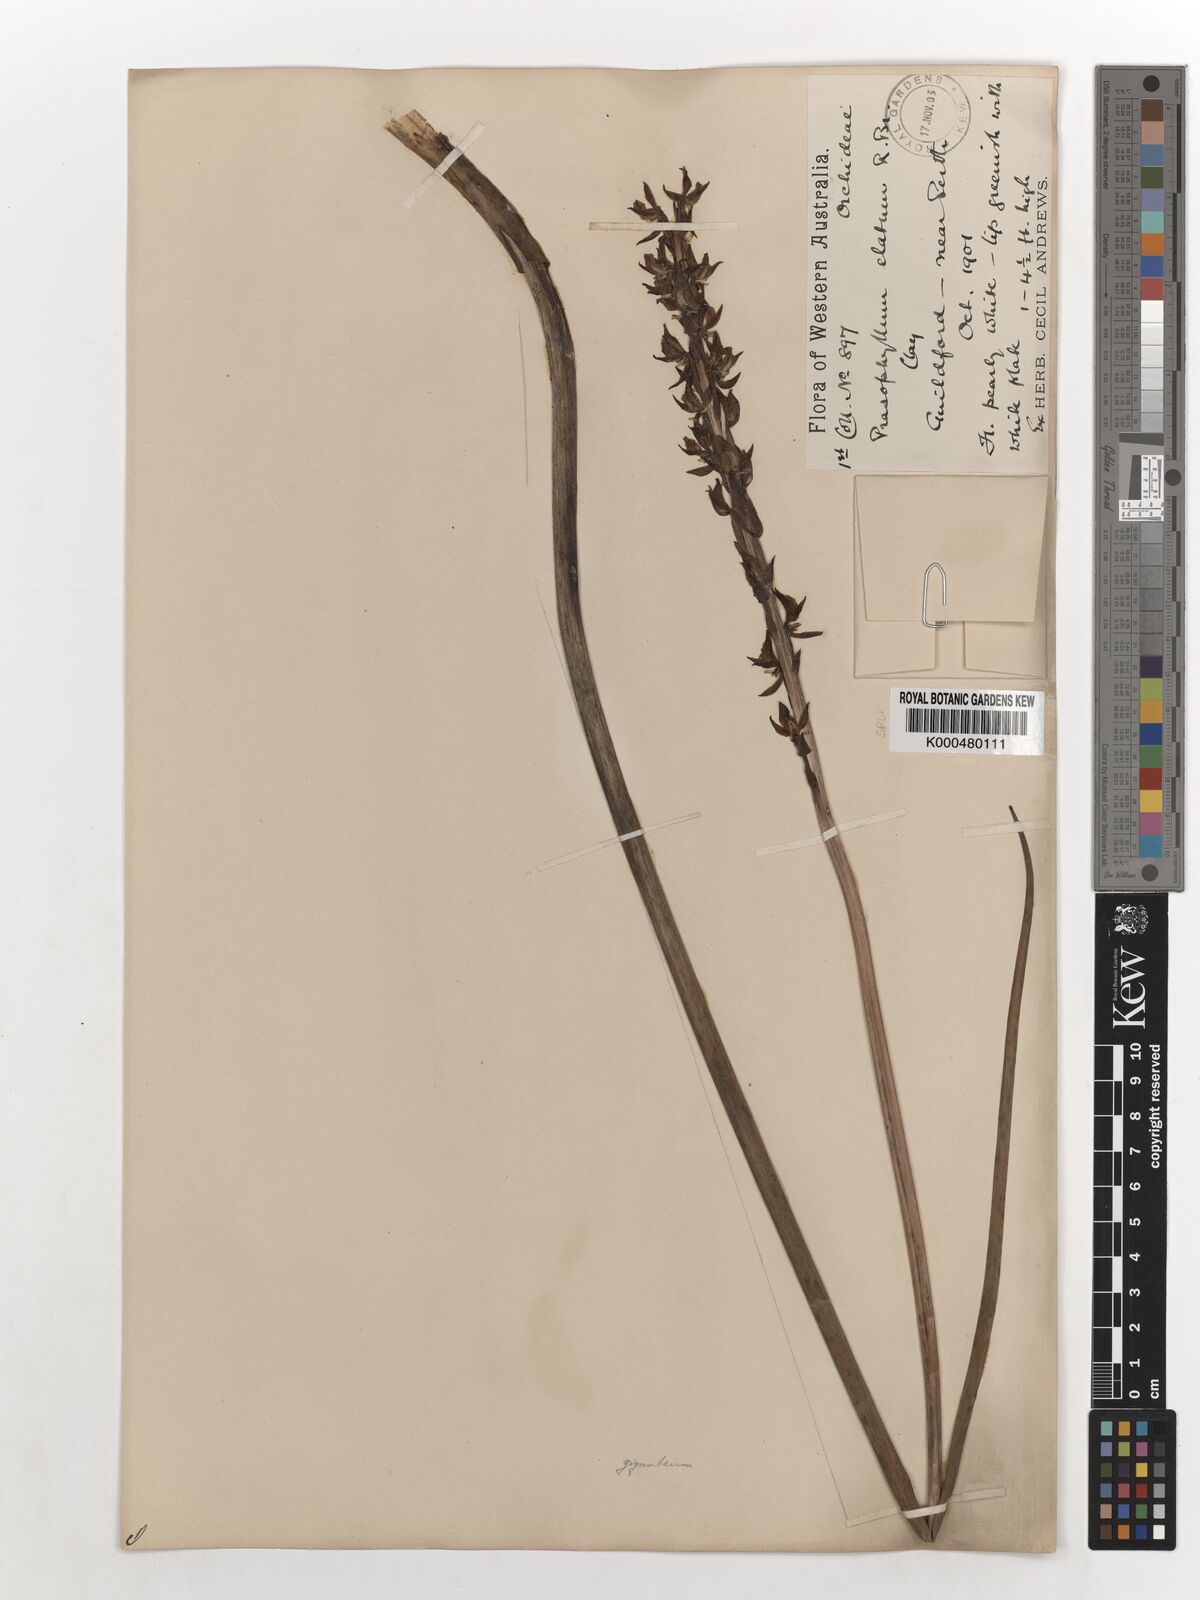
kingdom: Plantae
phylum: Tracheophyta
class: Liliopsida
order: Asparagales
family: Orchidaceae
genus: Prasophyllum
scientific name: Prasophyllum giganteum
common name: Bronze leek orchid
